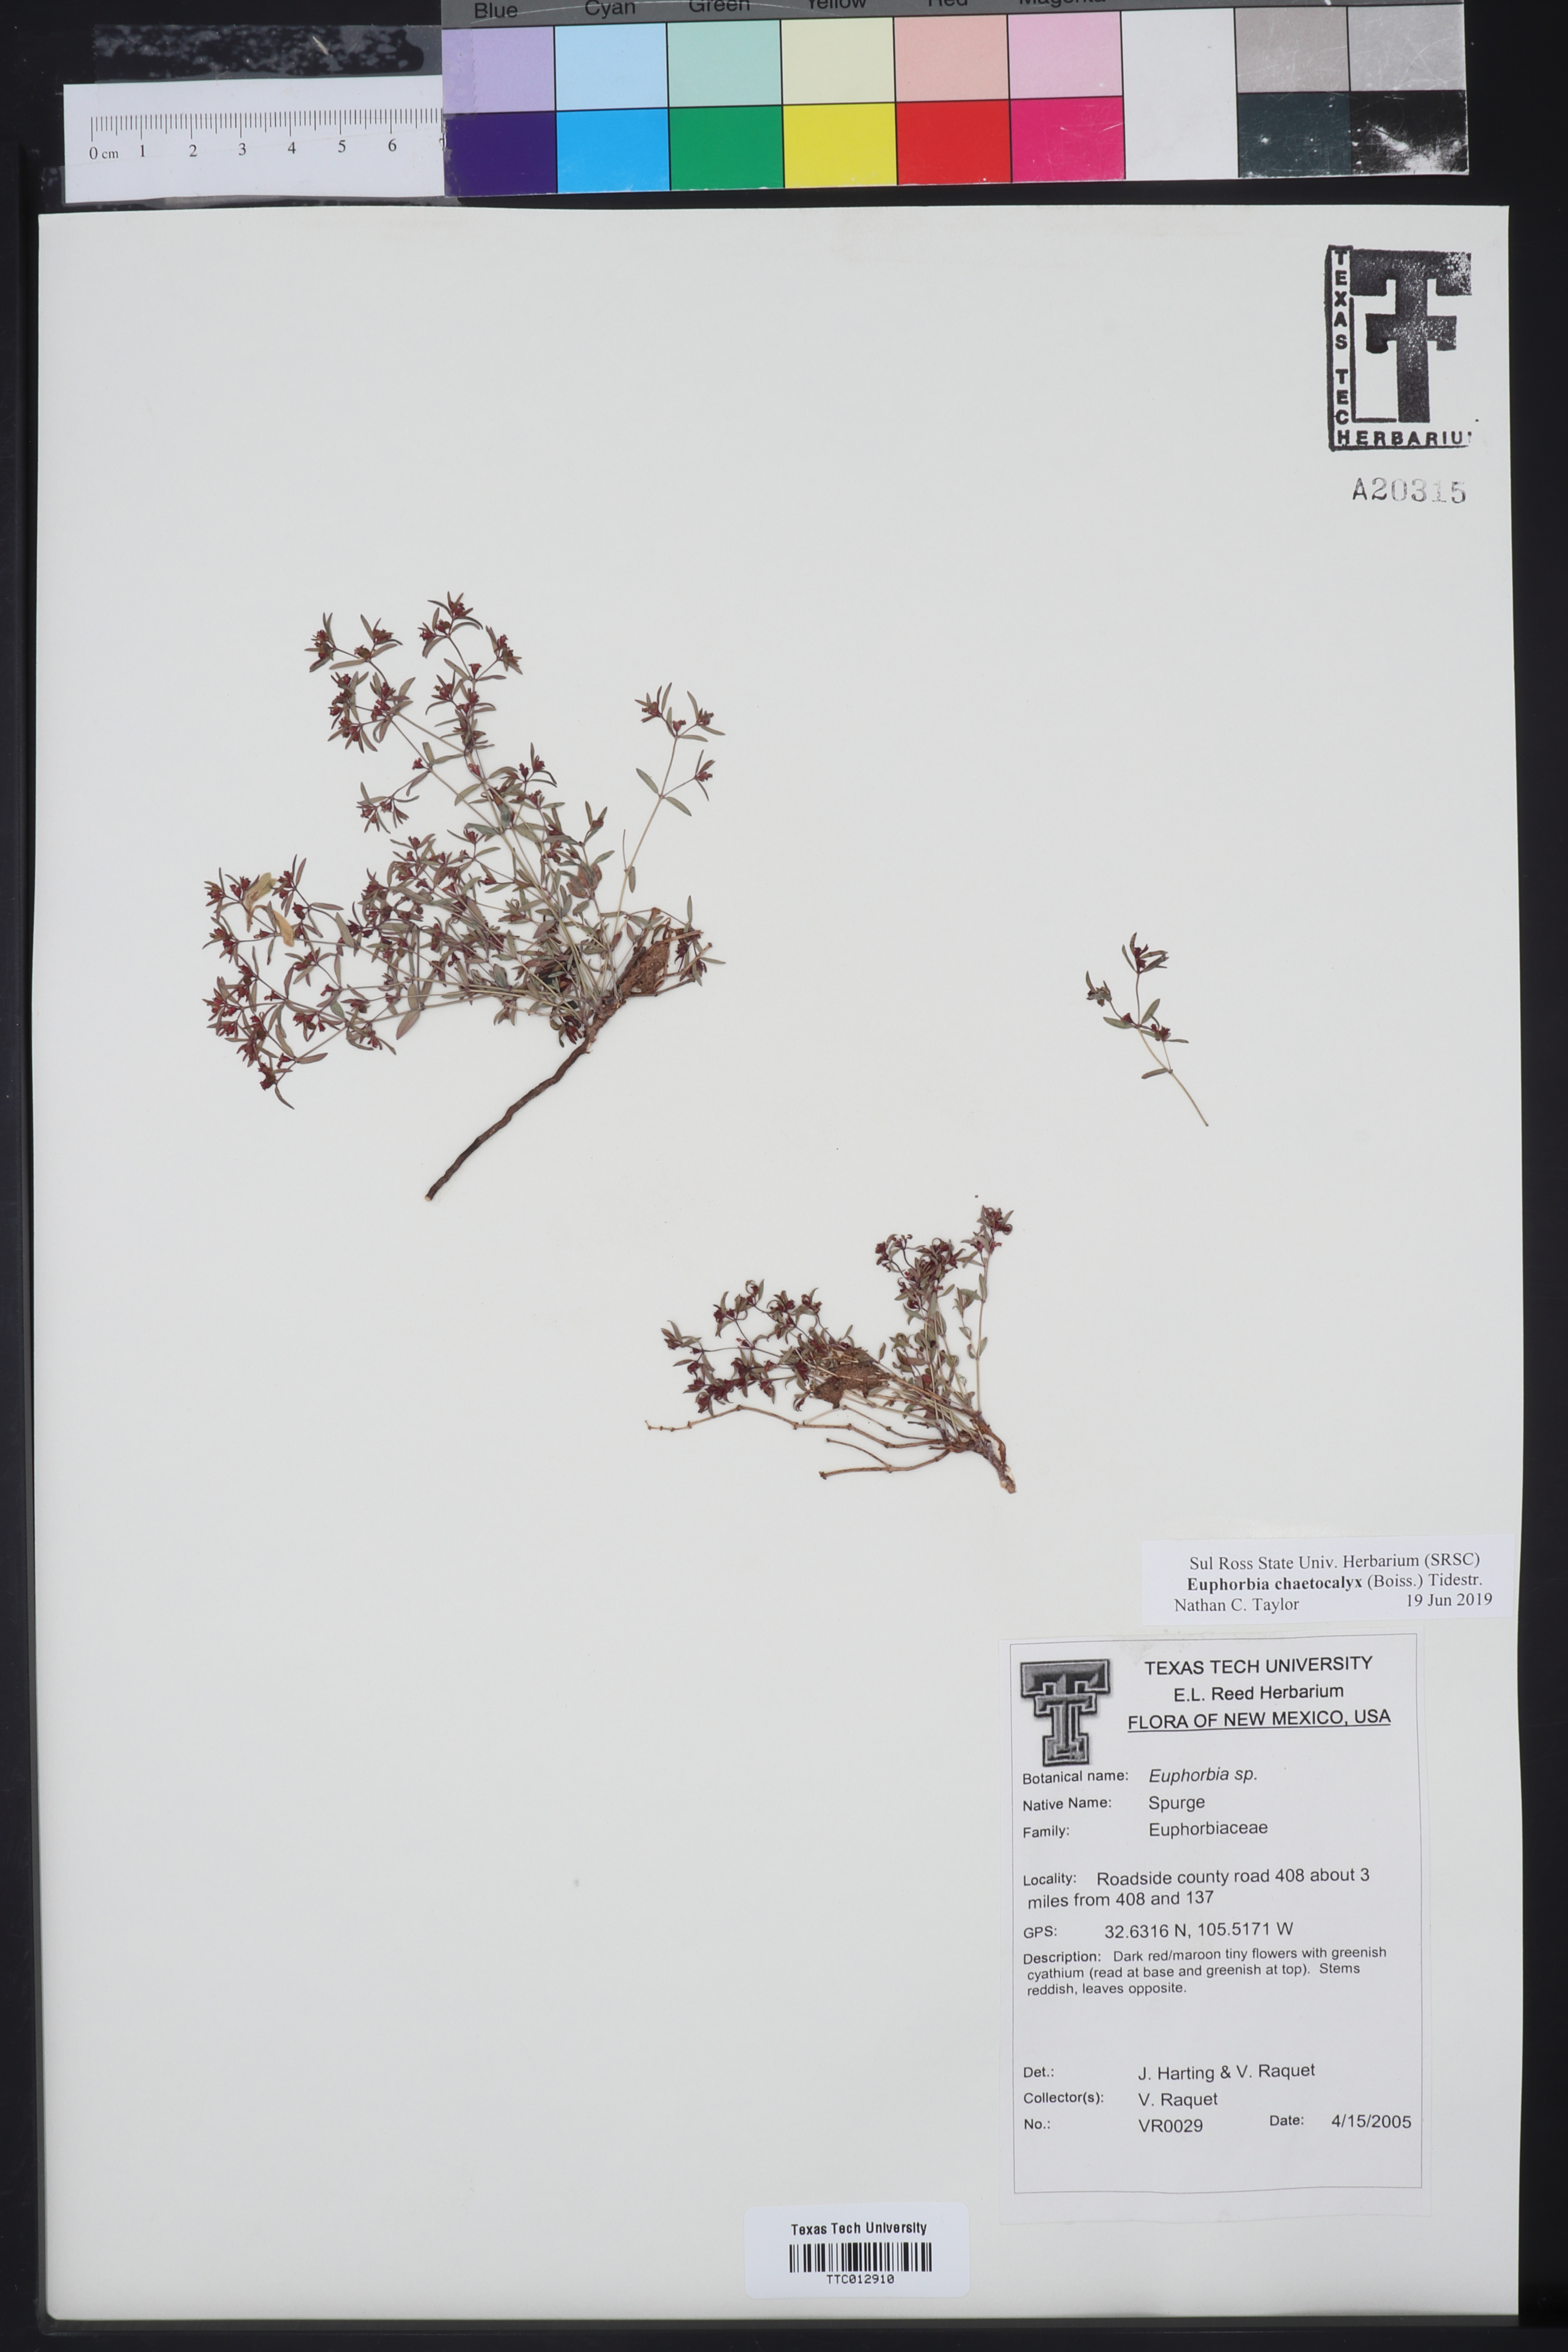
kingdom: Plantae
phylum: Tracheophyta
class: Magnoliopsida
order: Malpighiales
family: Euphorbiaceae
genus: Euphorbia
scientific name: Euphorbia chaetocalyx
